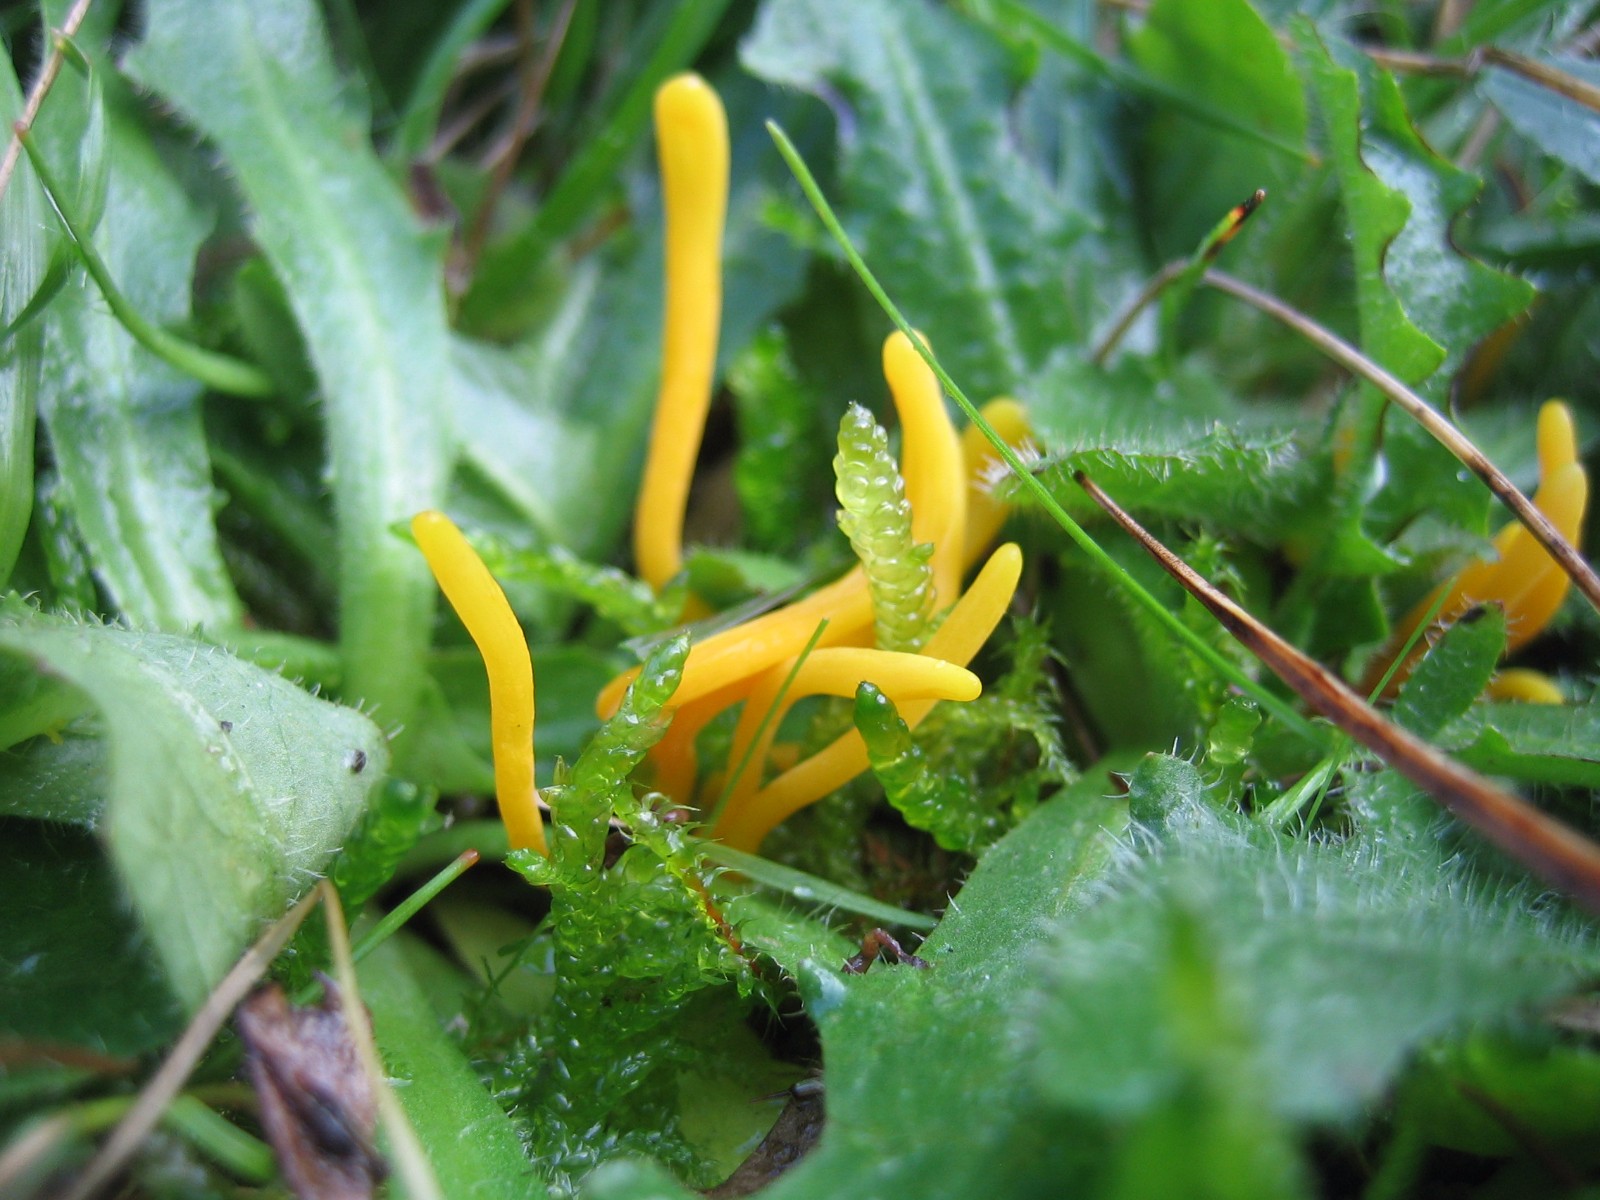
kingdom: Fungi
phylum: Basidiomycota
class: Agaricomycetes
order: Agaricales
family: Clavariaceae
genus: Clavulinopsis
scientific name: Clavulinopsis
